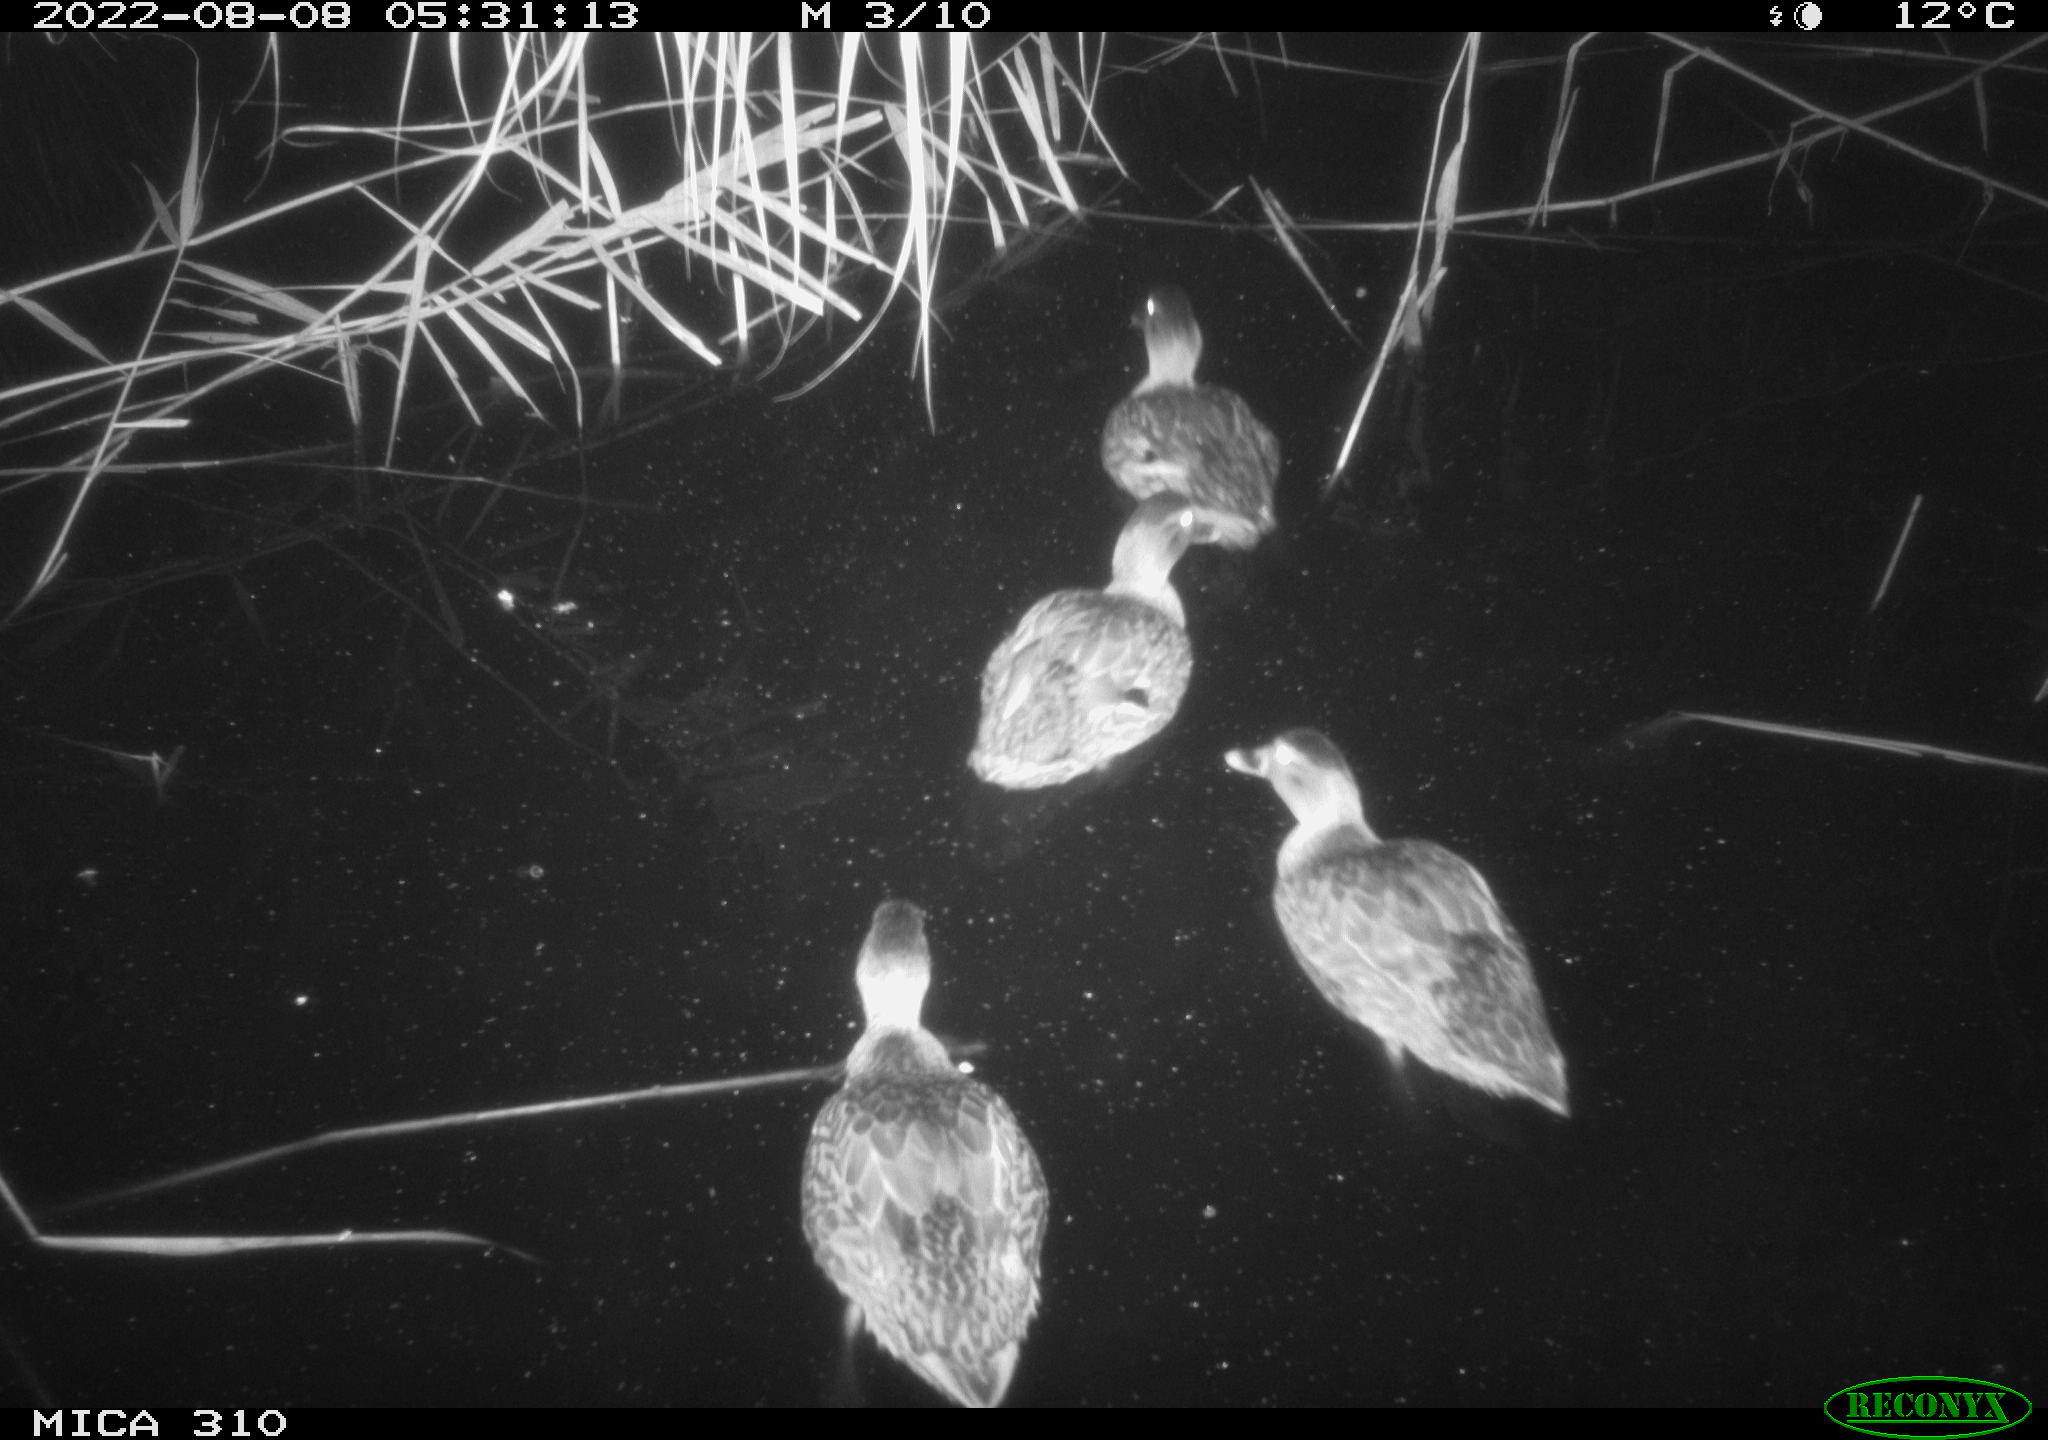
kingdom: Animalia
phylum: Chordata
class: Aves
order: Anseriformes
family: Anatidae
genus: Mareca
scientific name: Mareca strepera
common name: Gadwall
